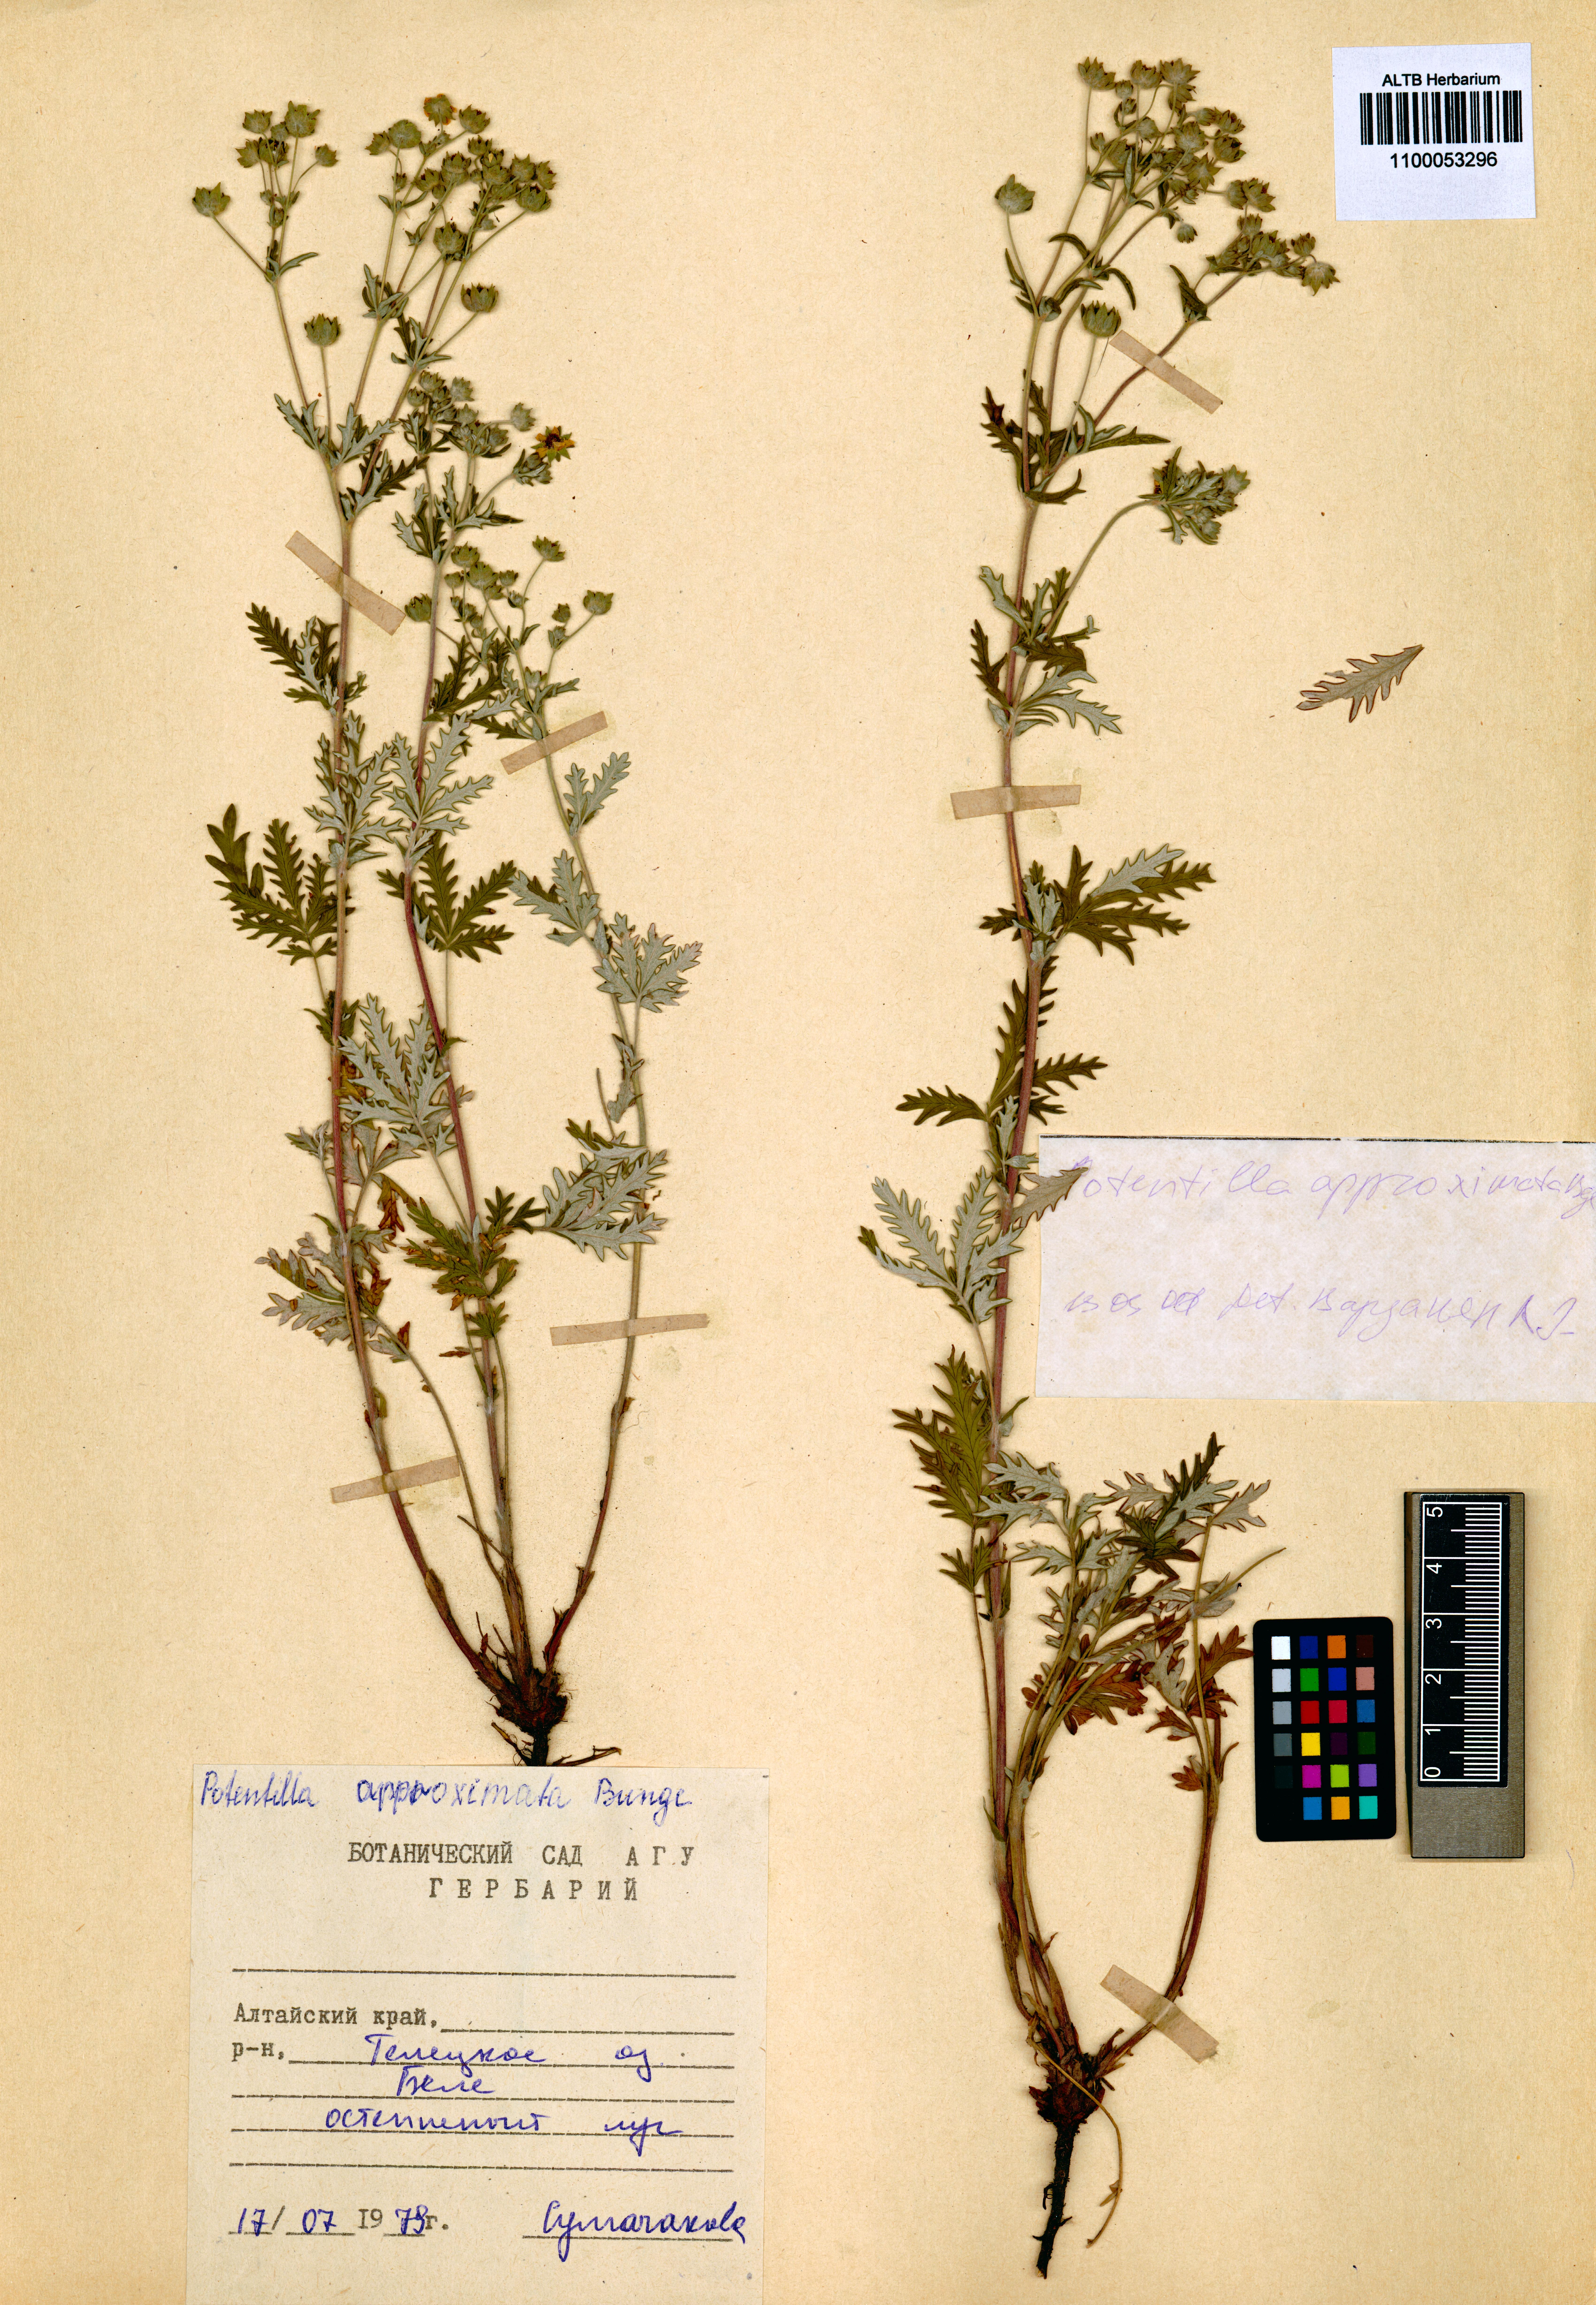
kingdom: Plantae
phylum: Tracheophyta
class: Magnoliopsida
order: Rosales
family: Rosaceae
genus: Potentilla
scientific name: Potentilla conferta
